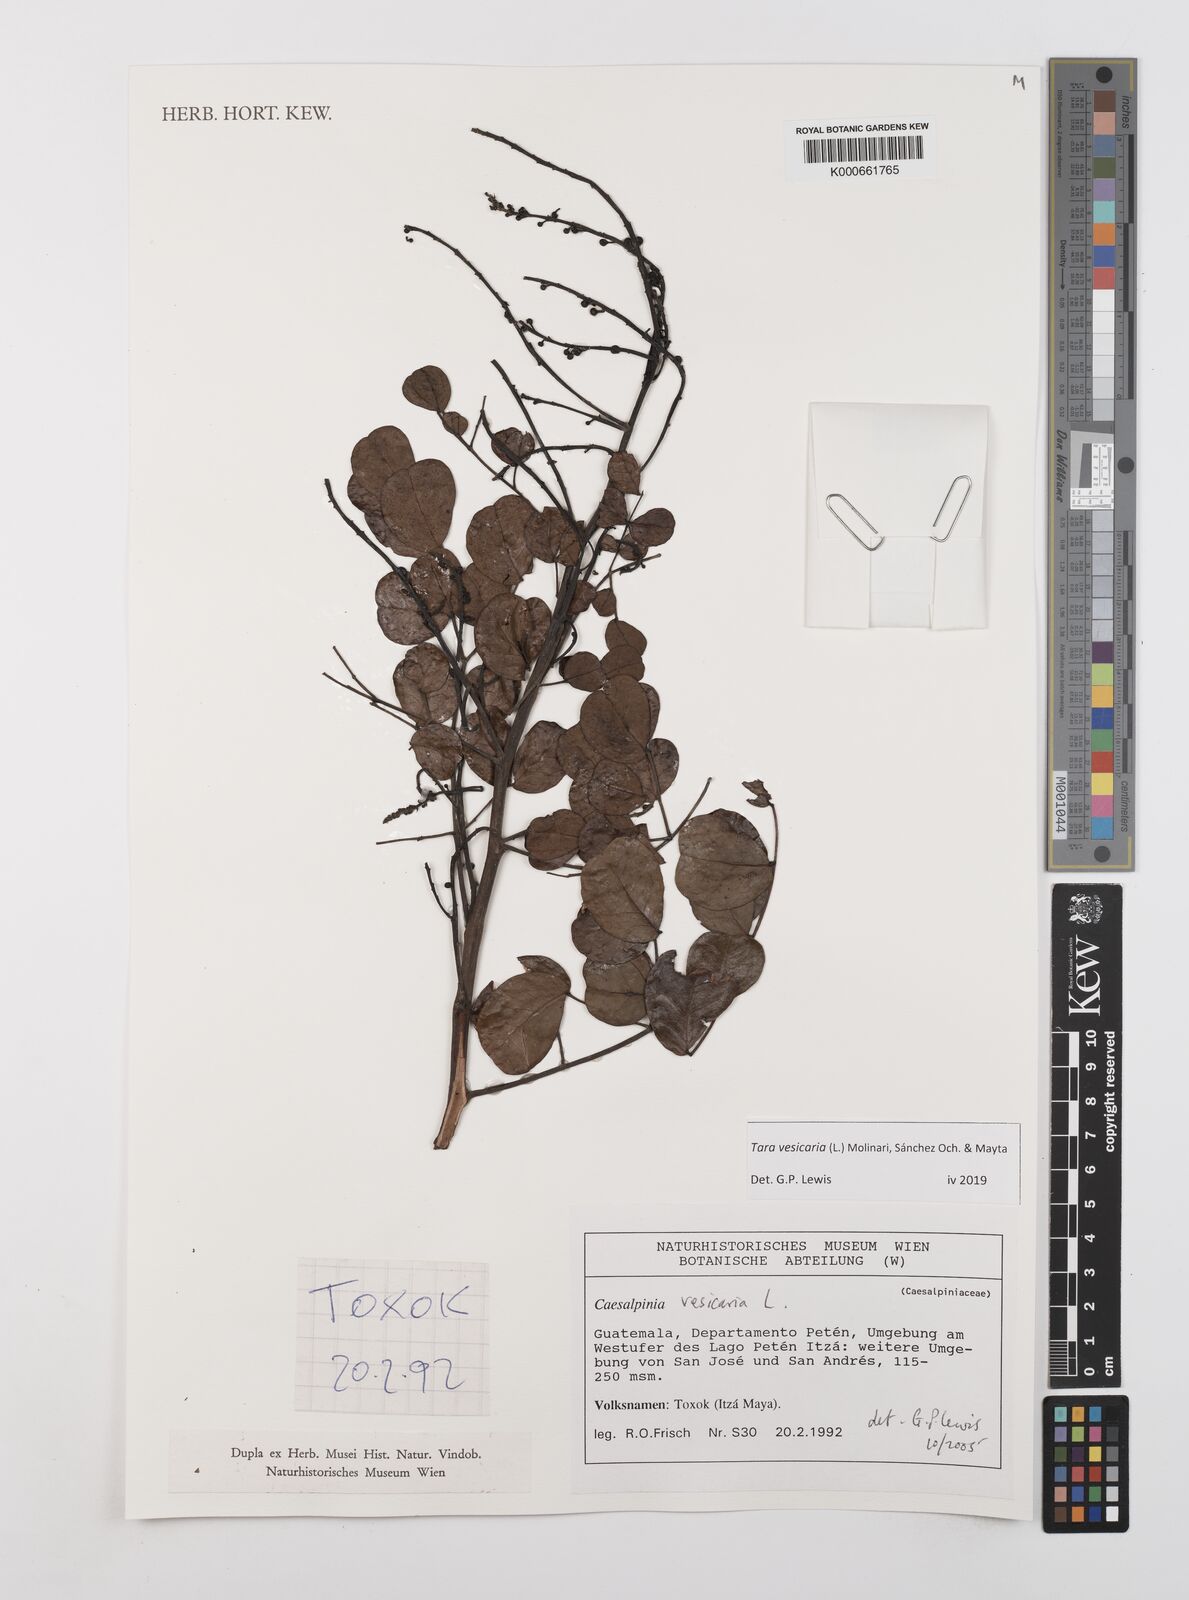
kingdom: Plantae
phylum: Tracheophyta
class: Magnoliopsida
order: Fabales
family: Fabaceae
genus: Tara
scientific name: Tara vesicaria
